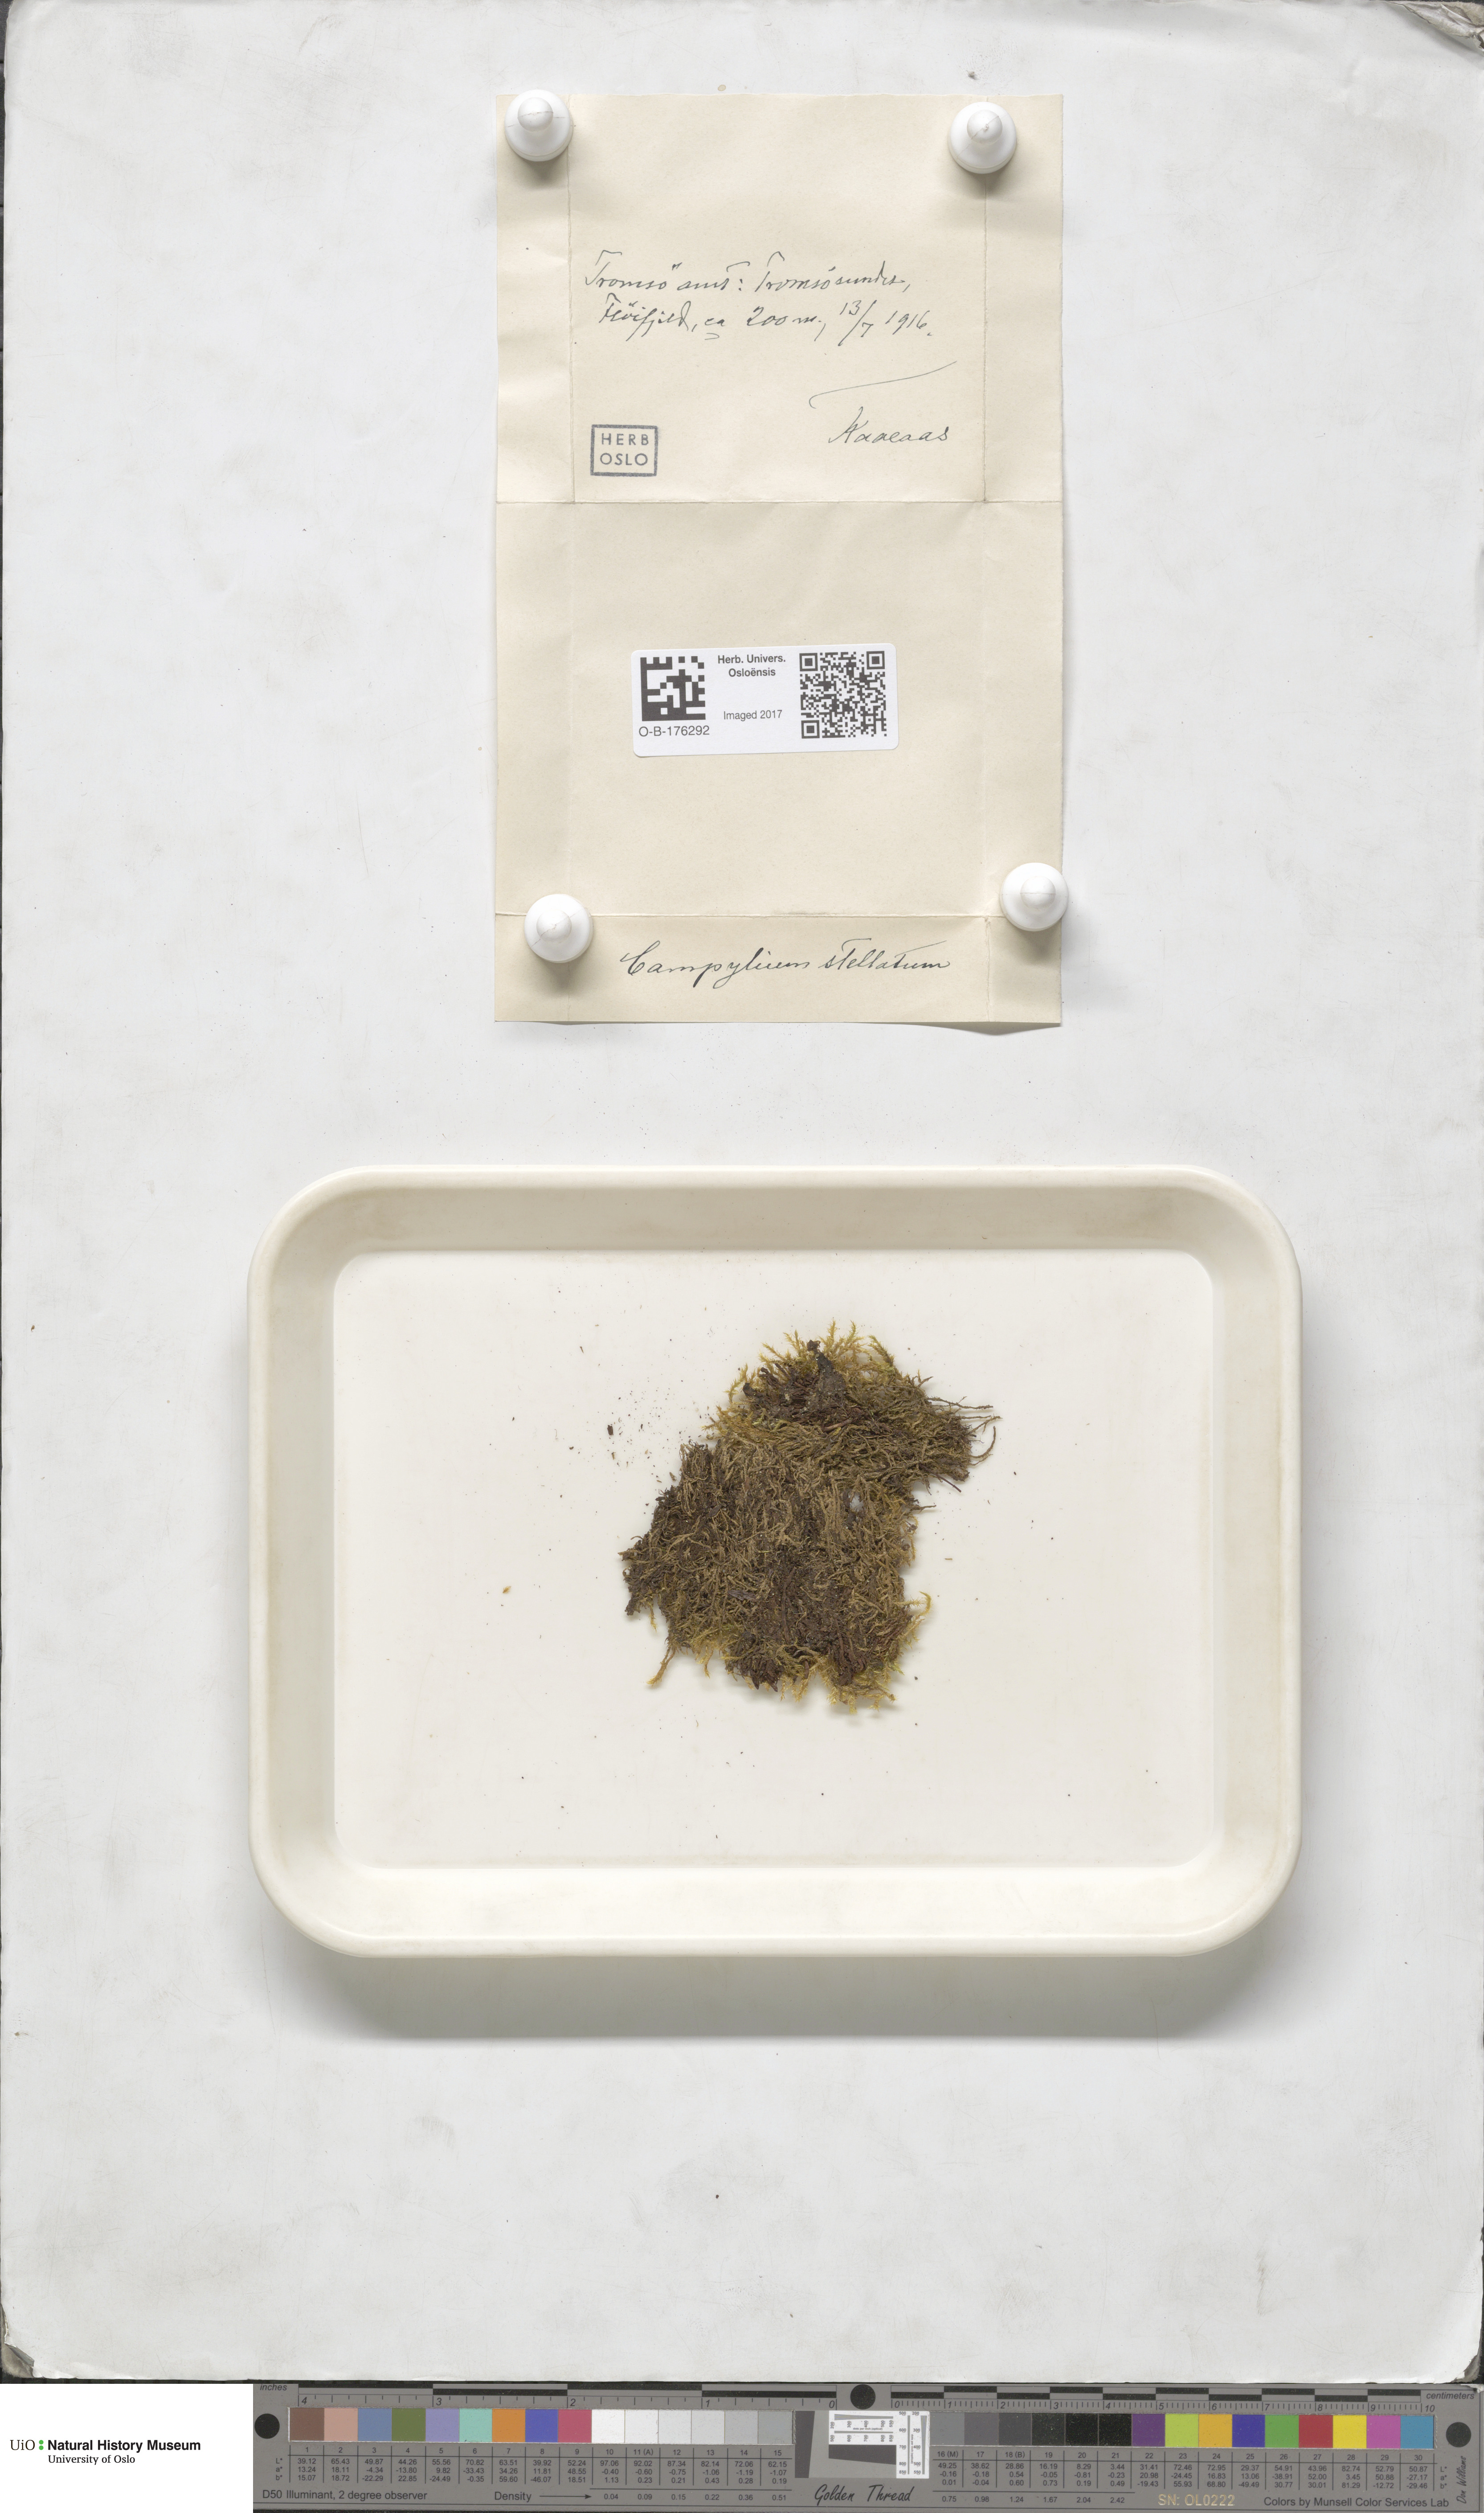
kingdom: Plantae
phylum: Bryophyta
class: Bryopsida
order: Hypnales
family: Amblystegiaceae
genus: Campylium
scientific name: Campylium stellatum
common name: Yellow starry fen moss
